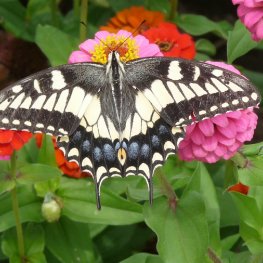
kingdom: Animalia
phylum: Arthropoda
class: Insecta
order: Lepidoptera
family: Papilionidae
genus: Papilio
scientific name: Papilio zelicaon
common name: Anise Swallowtail
